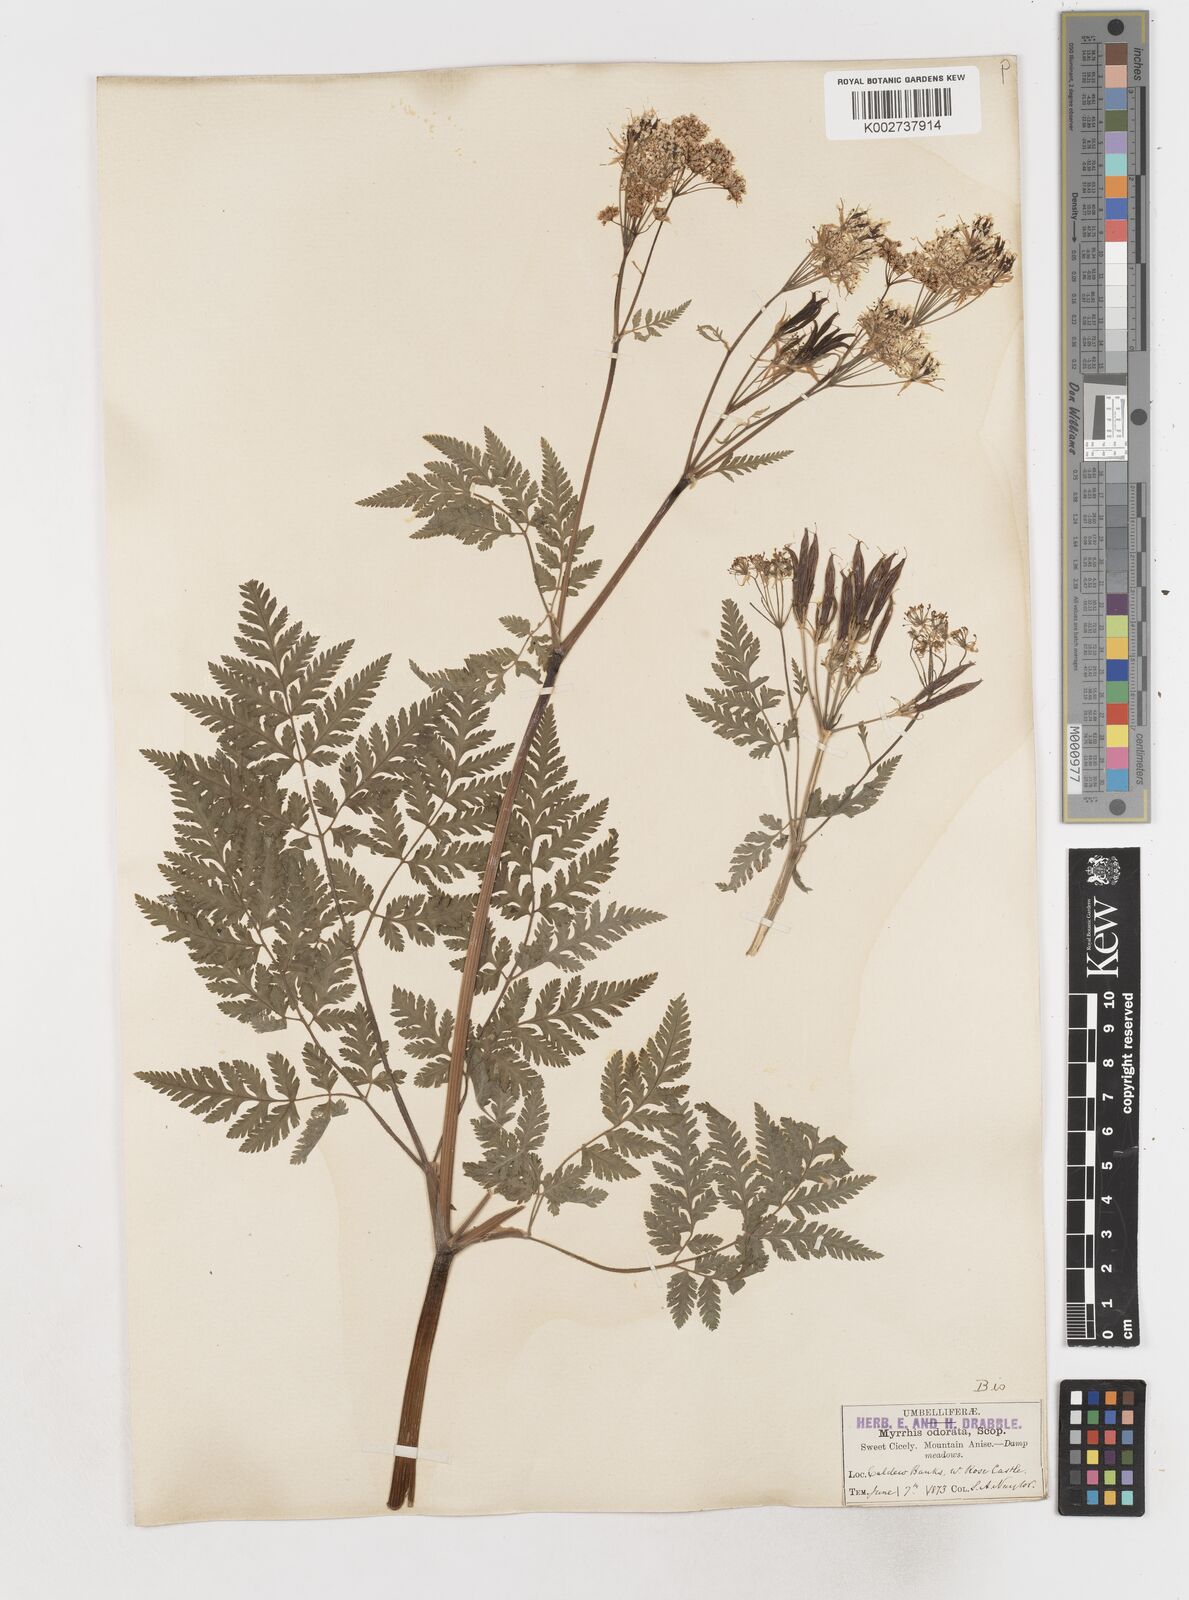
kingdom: Plantae
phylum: Tracheophyta
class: Magnoliopsida
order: Apiales
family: Apiaceae
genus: Myrrhis
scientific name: Myrrhis odorata
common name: Sweet cicely
